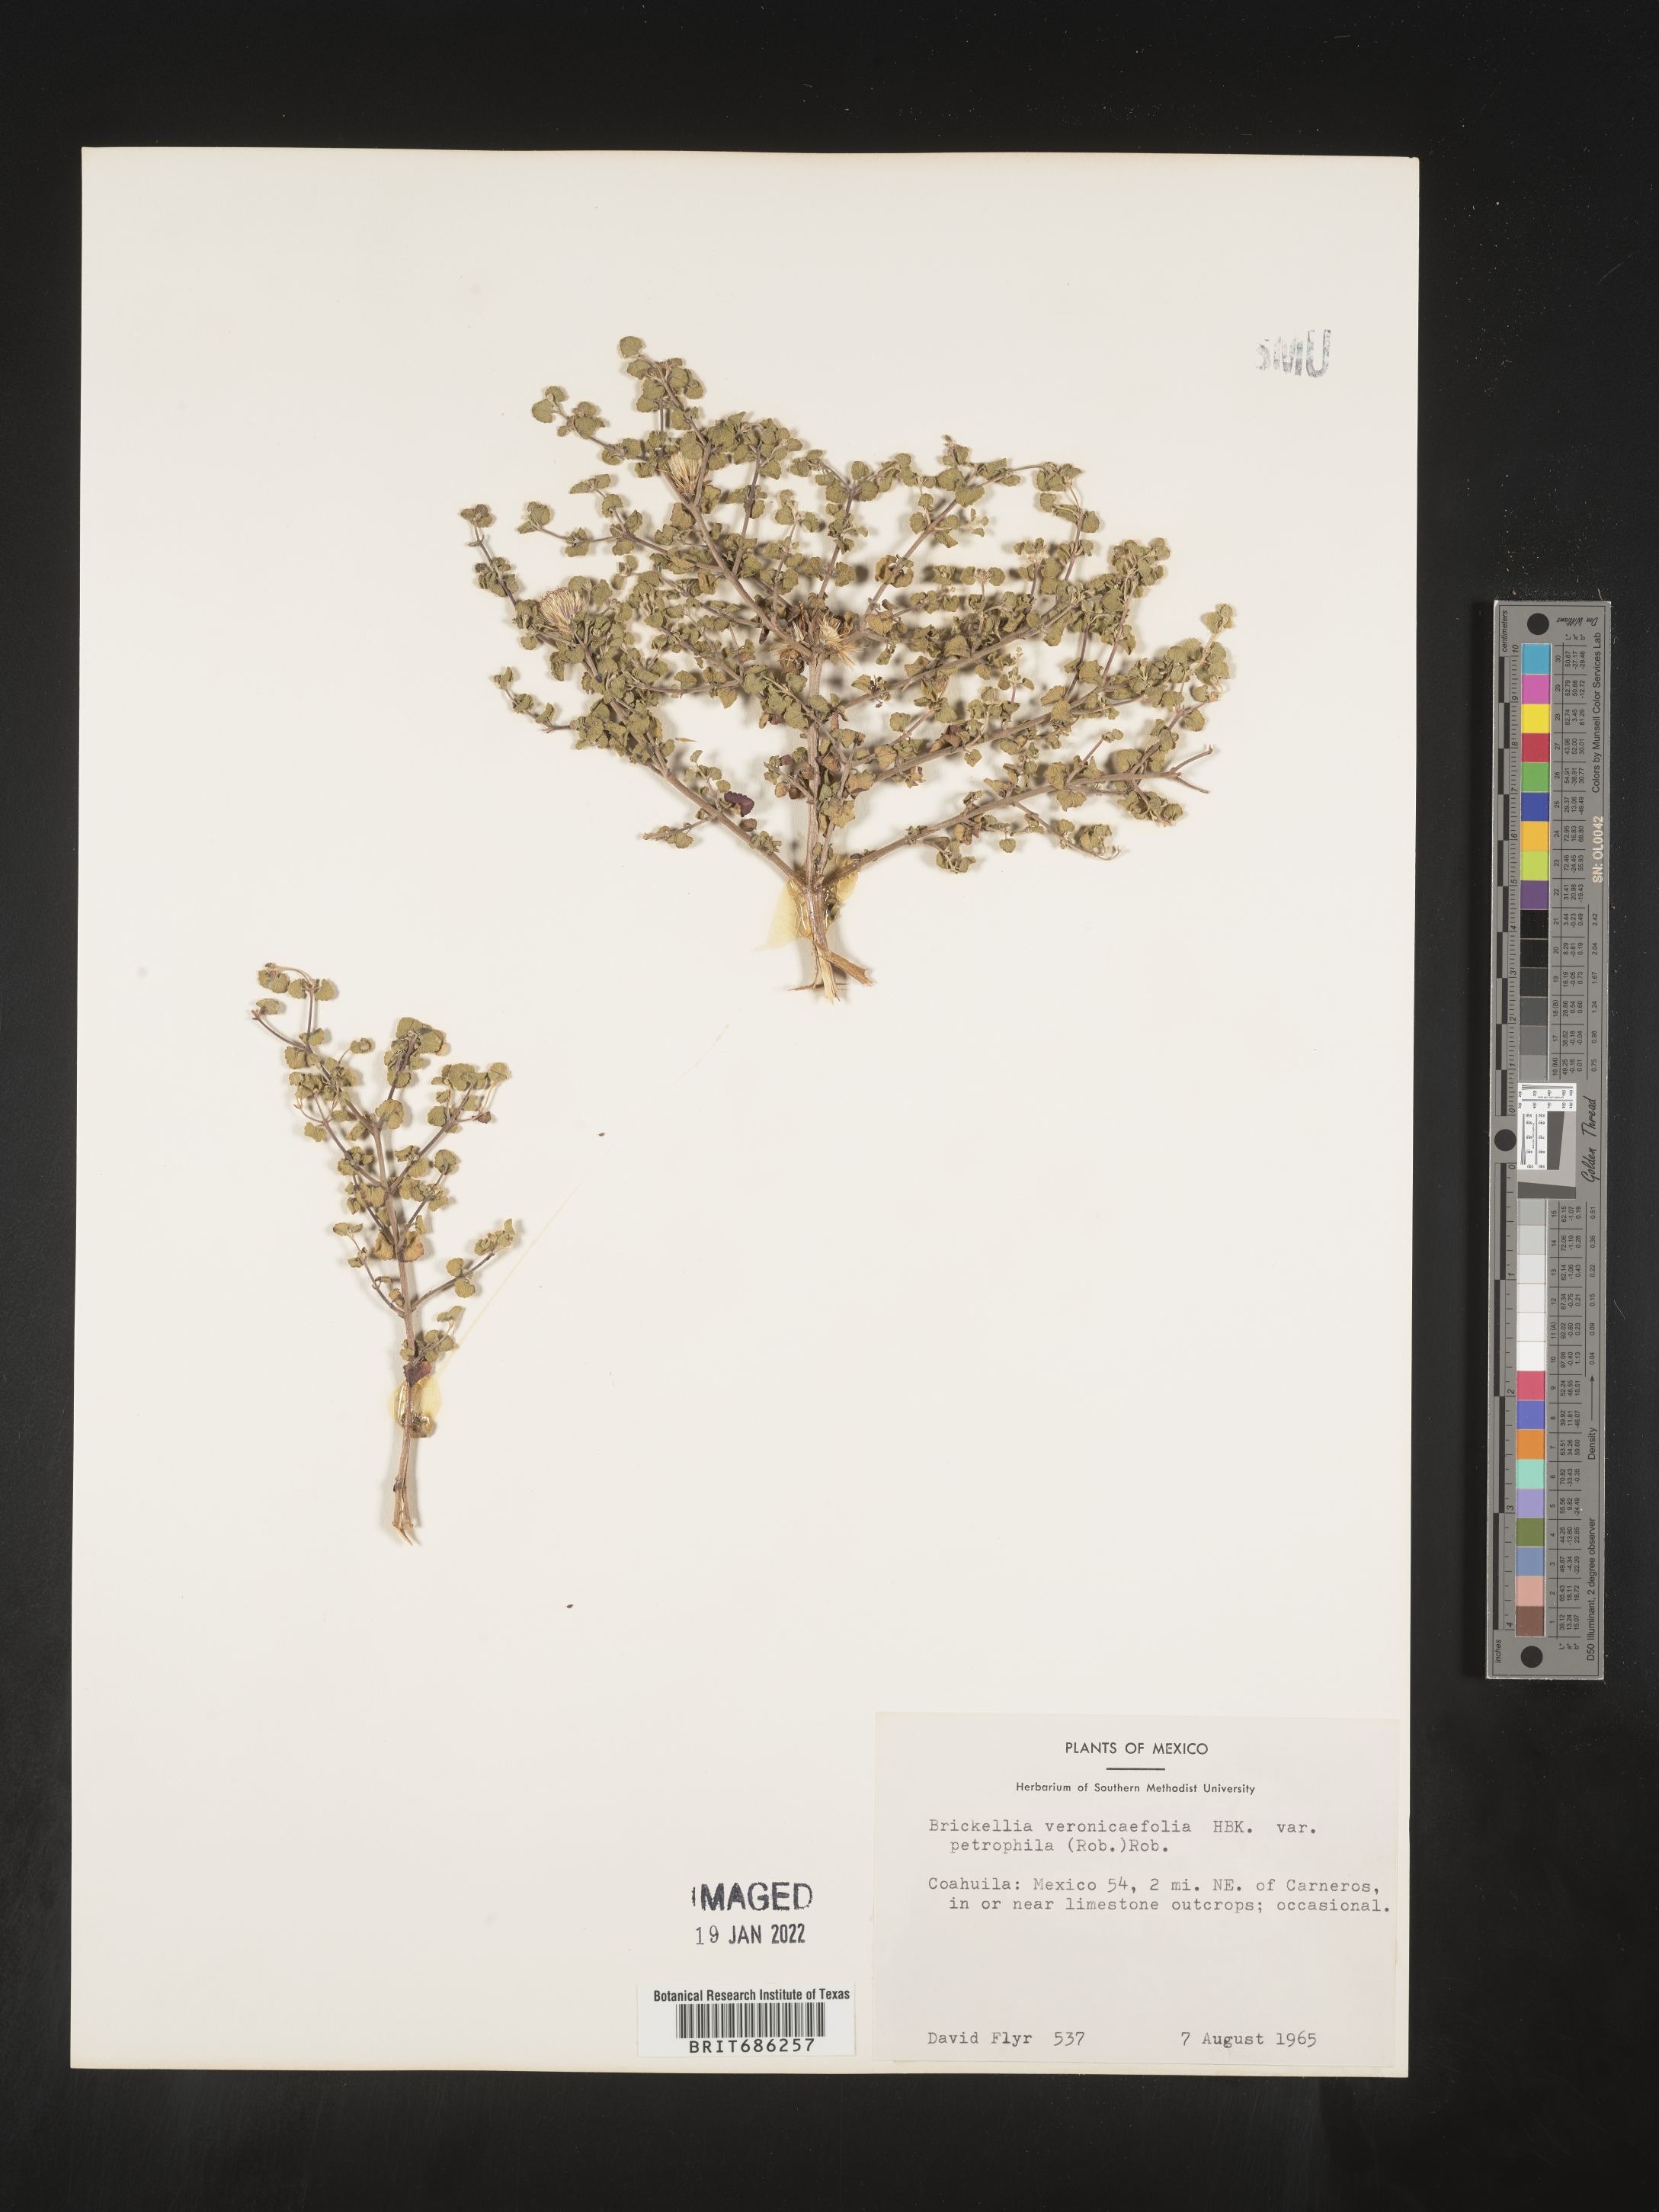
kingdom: Plantae
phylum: Tracheophyta
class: Magnoliopsida
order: Asterales
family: Asteraceae
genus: Brickellia
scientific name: Brickellia veronicifolia
